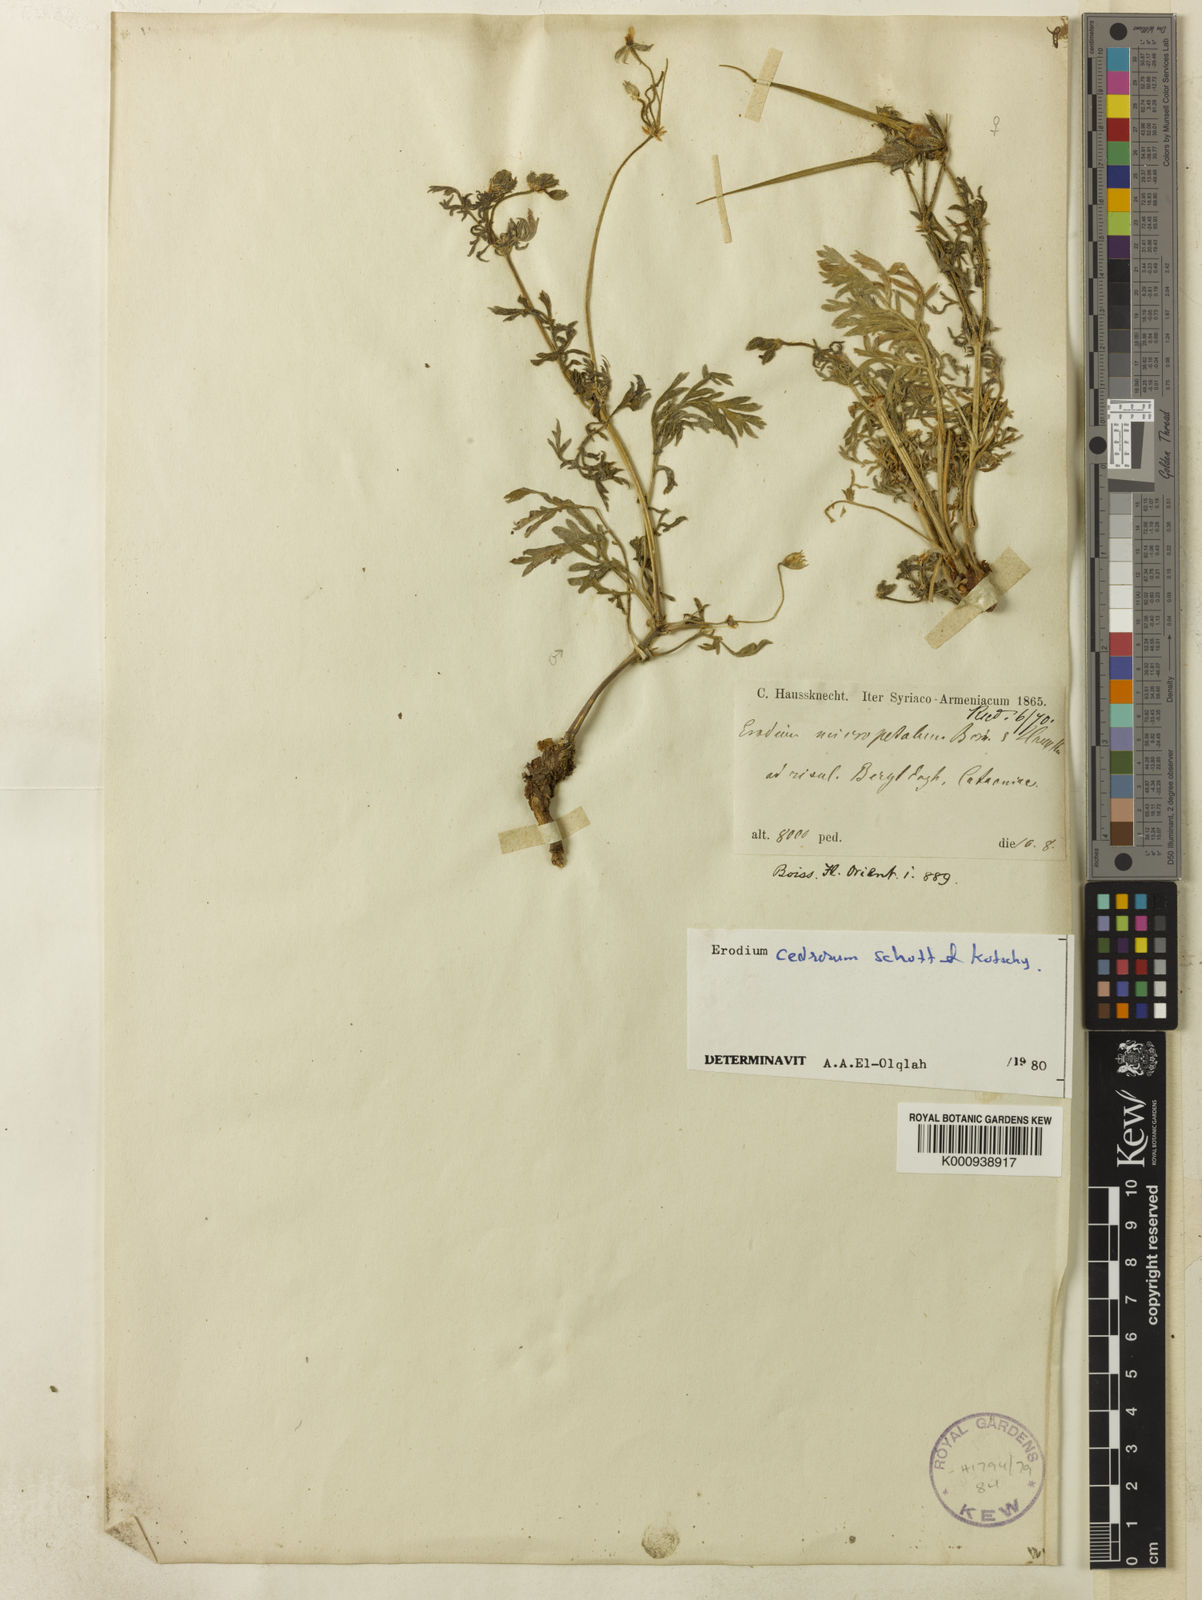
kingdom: Plantae
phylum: Tracheophyta
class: Magnoliopsida
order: Geraniales
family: Geraniaceae
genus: Erodium
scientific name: Erodium cedrorum
